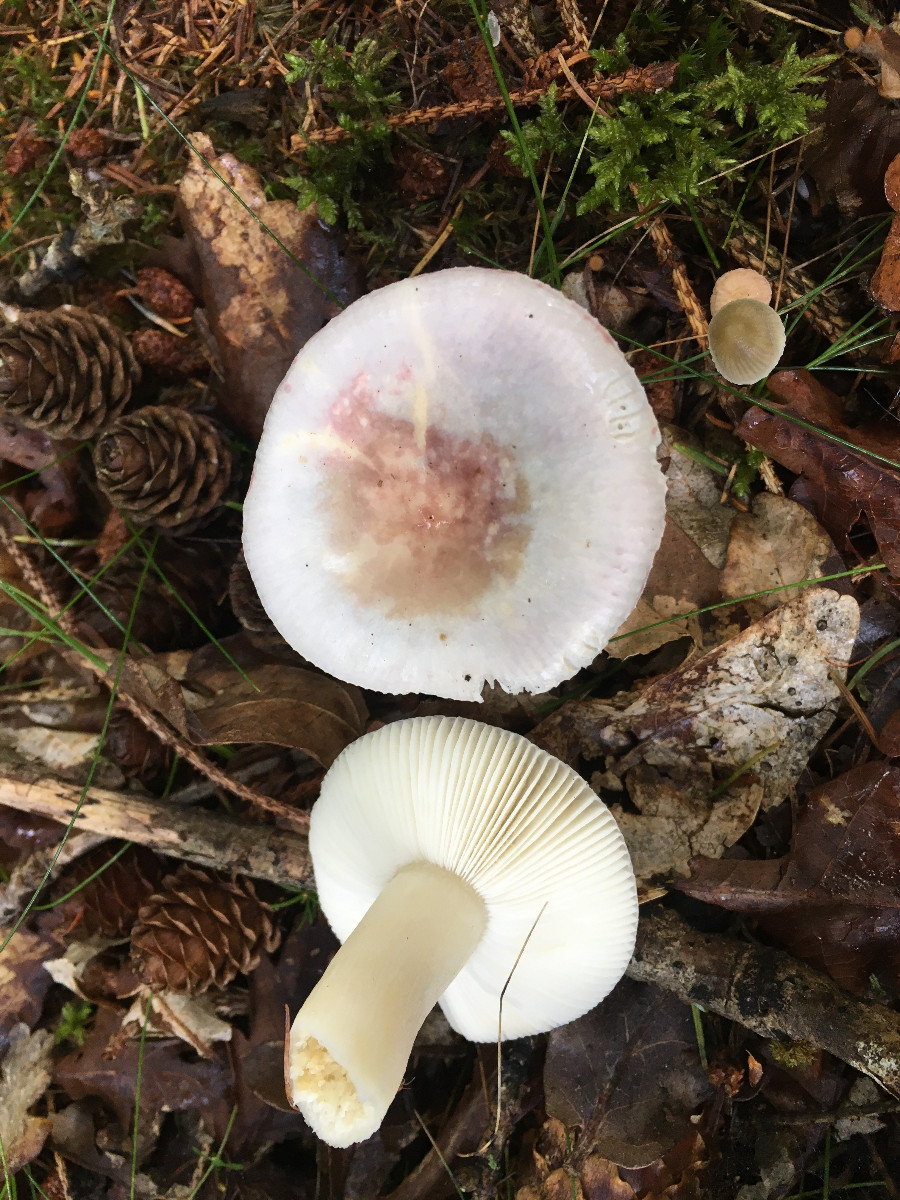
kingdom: Fungi
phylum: Basidiomycota
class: Agaricomycetes
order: Russulales
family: Russulaceae
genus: Russula
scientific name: Russula
